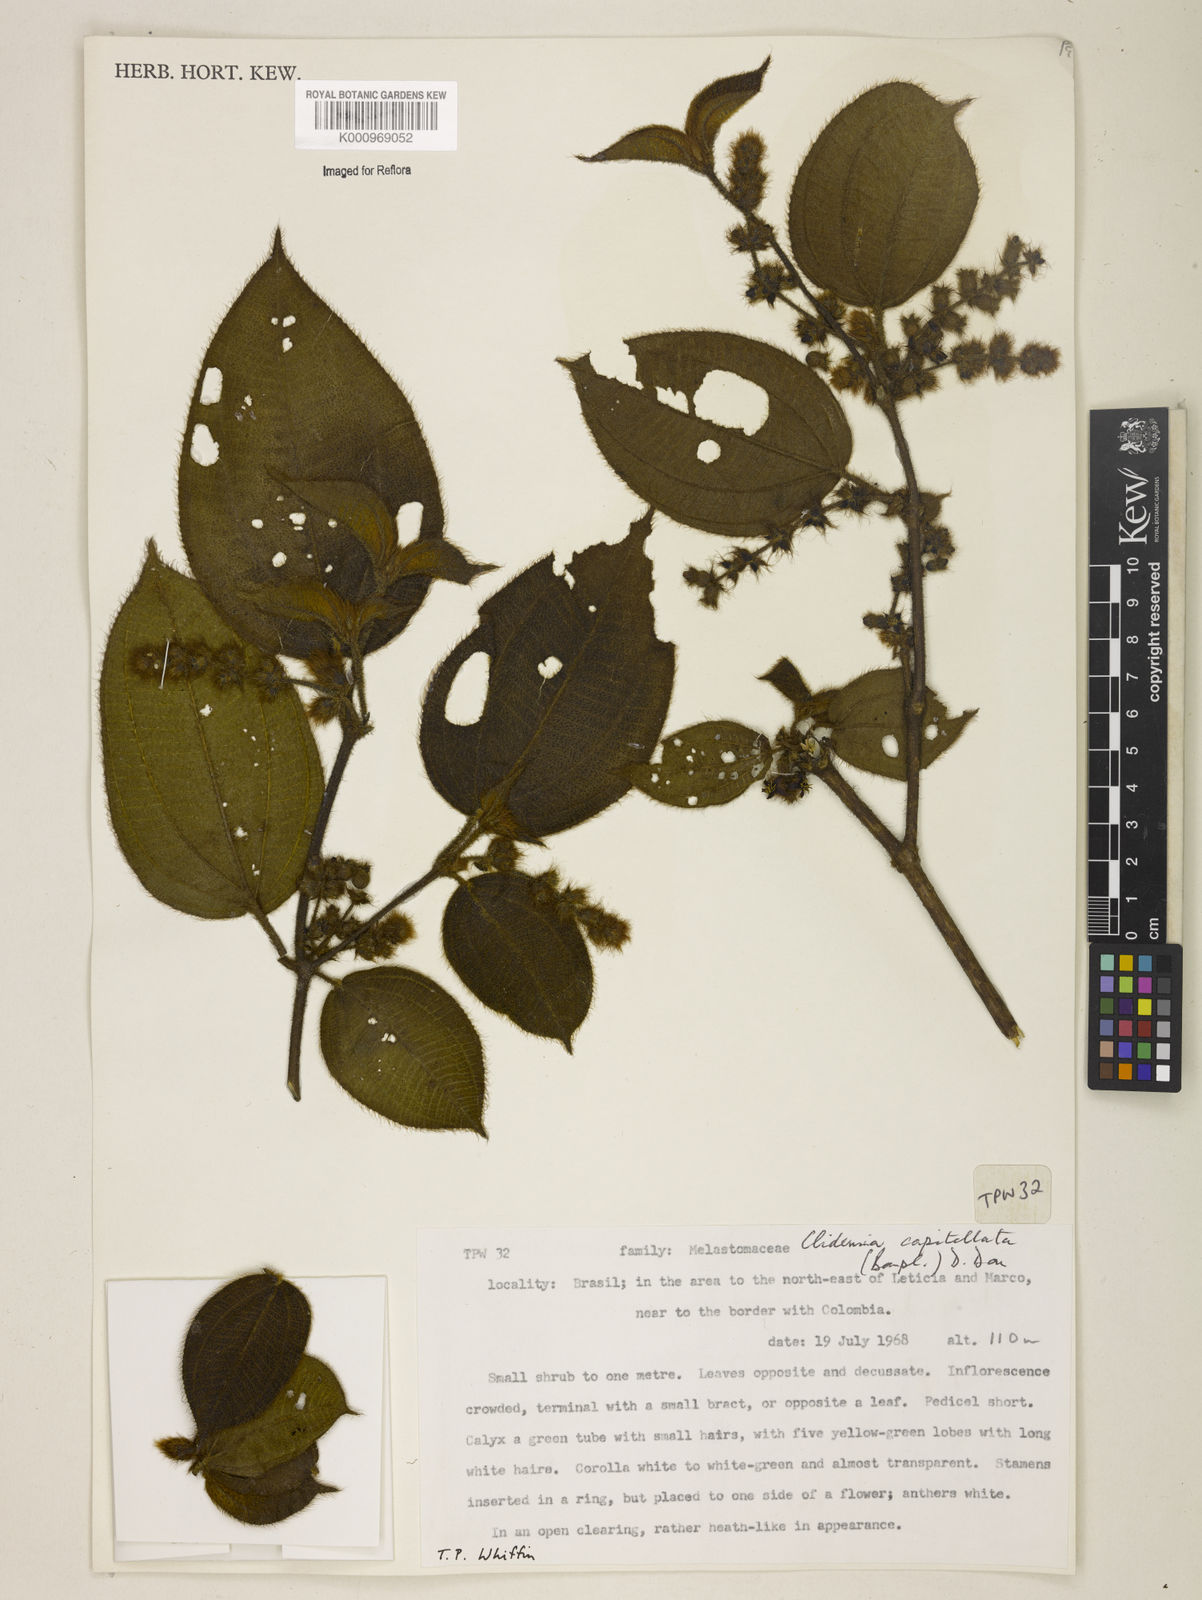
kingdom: Plantae
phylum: Tracheophyta
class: Magnoliopsida
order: Myrtales
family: Melastomataceae
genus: Miconia
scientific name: Miconia dependens
